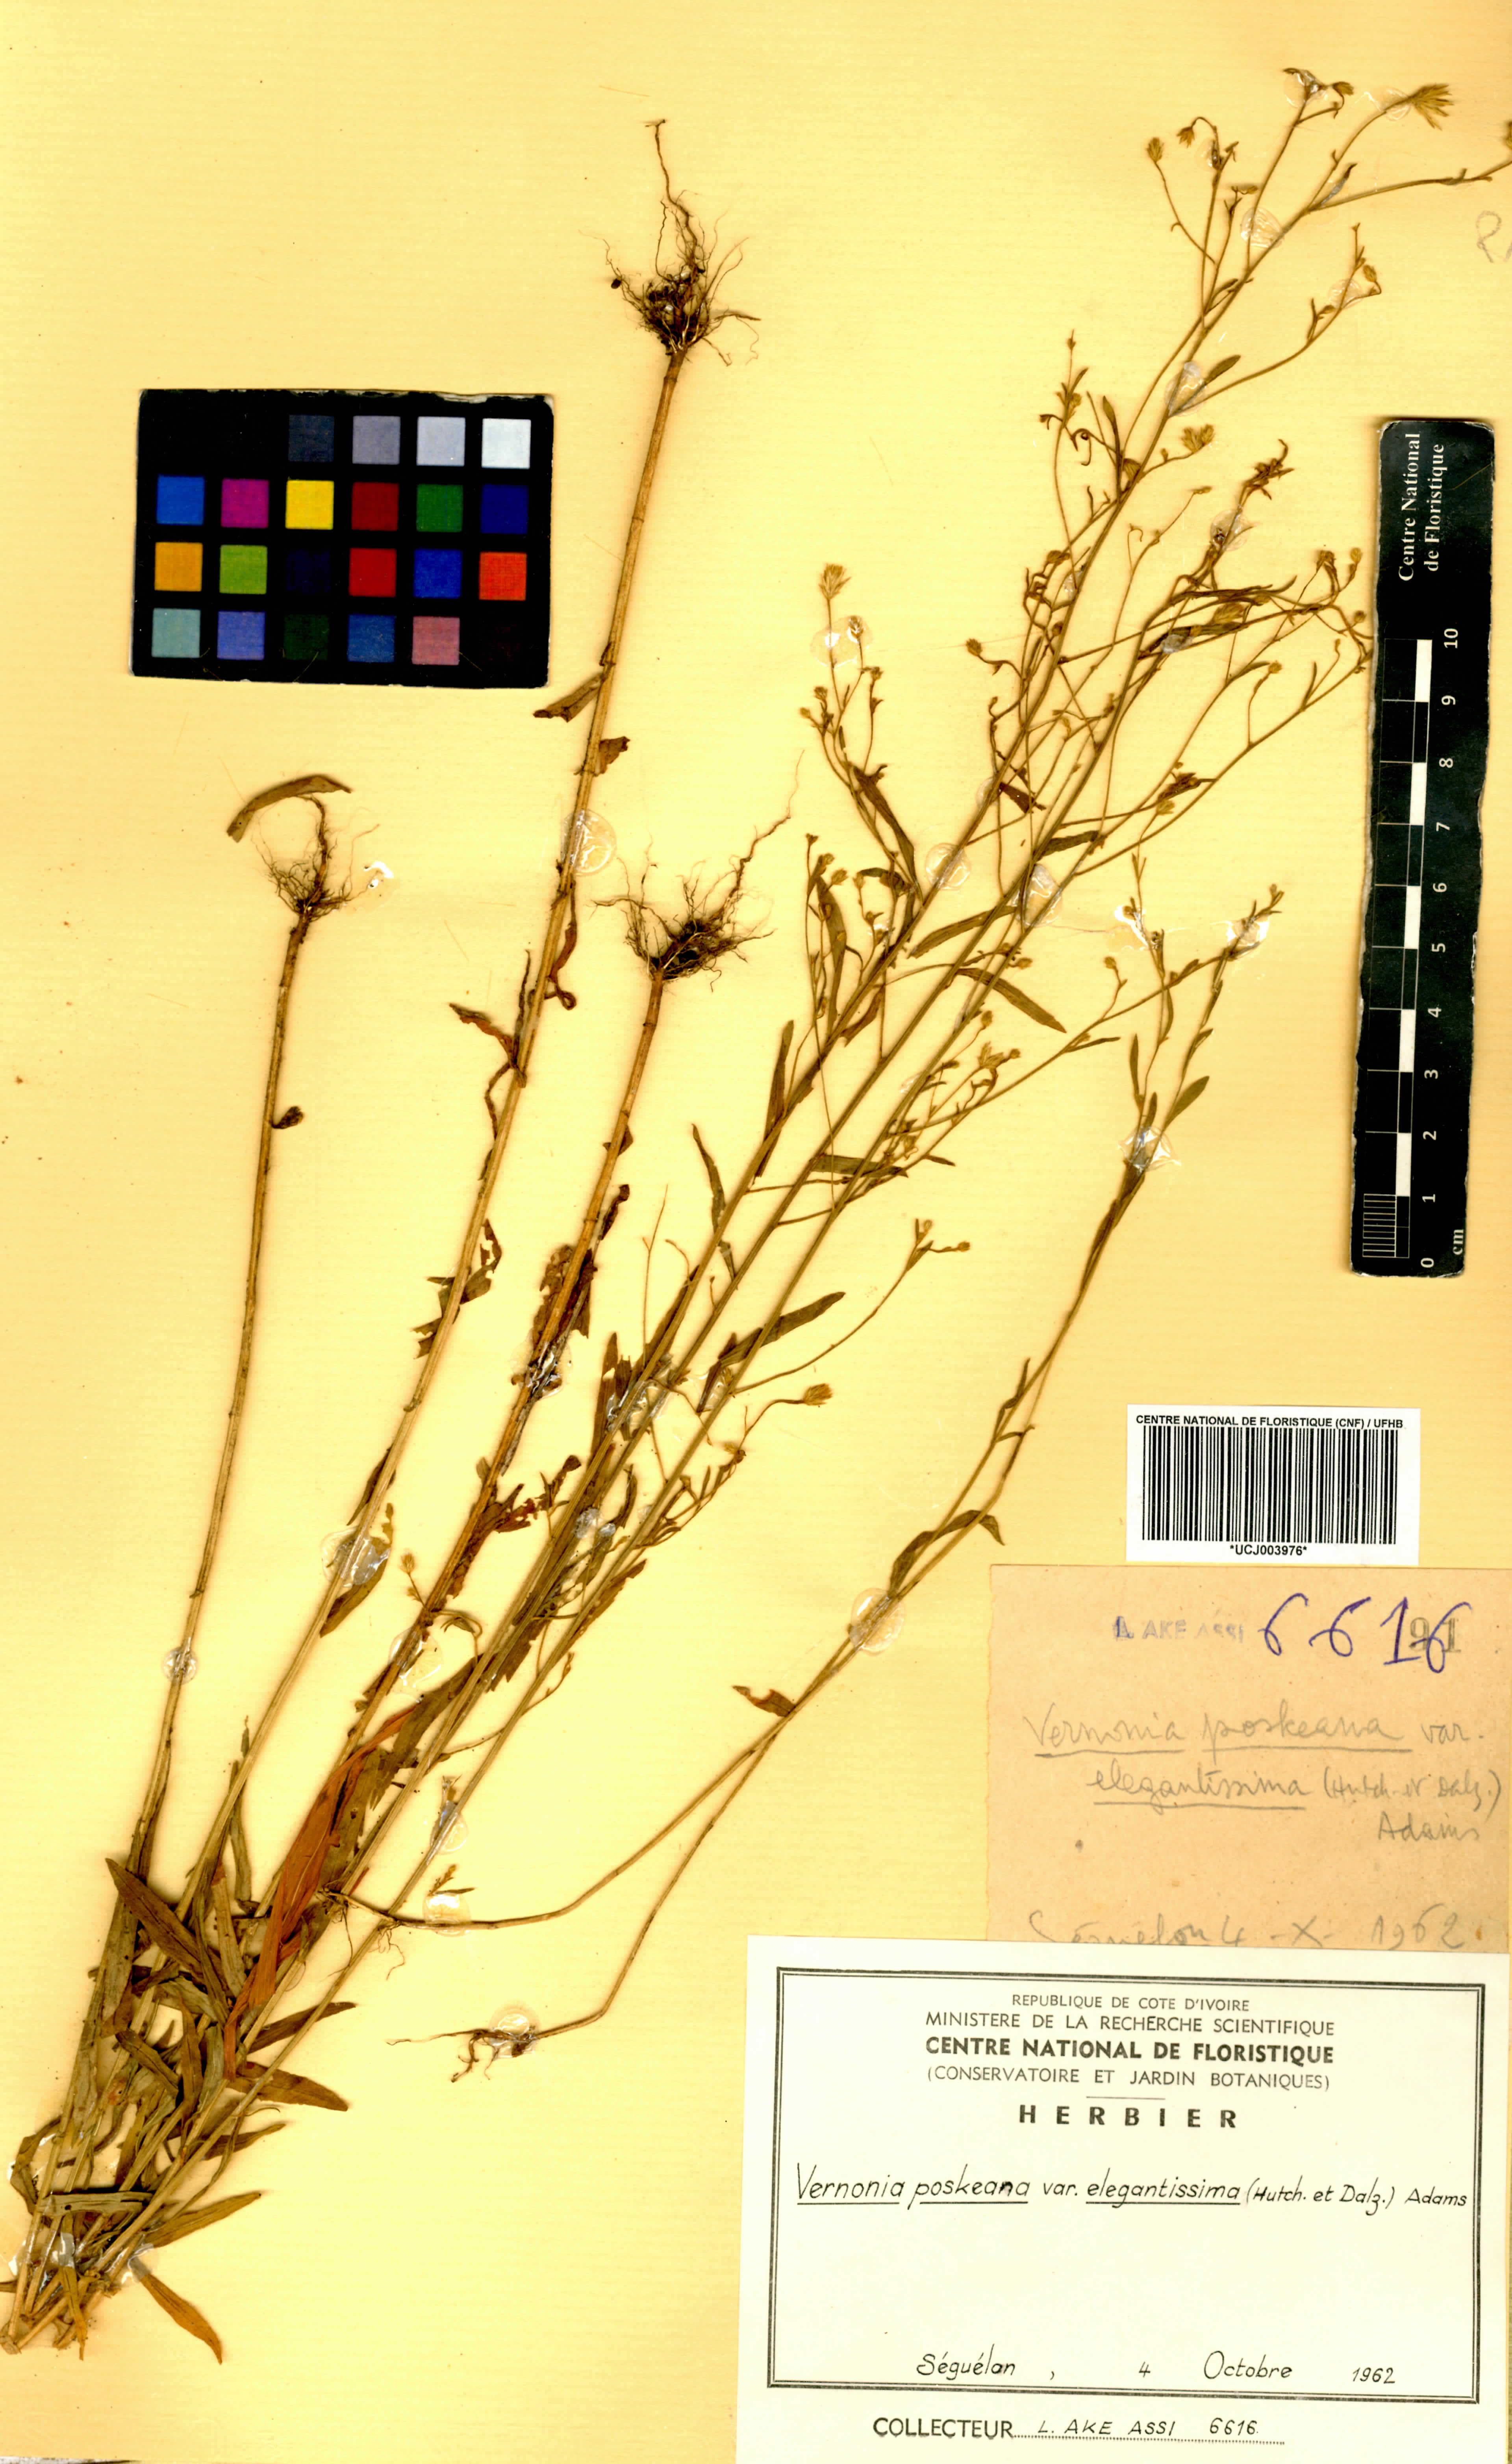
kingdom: Plantae
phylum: Tracheophyta
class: Magnoliopsida
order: Asterales
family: Asteraceae
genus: Crystallopollen
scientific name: Crystallopollen angustifolium
